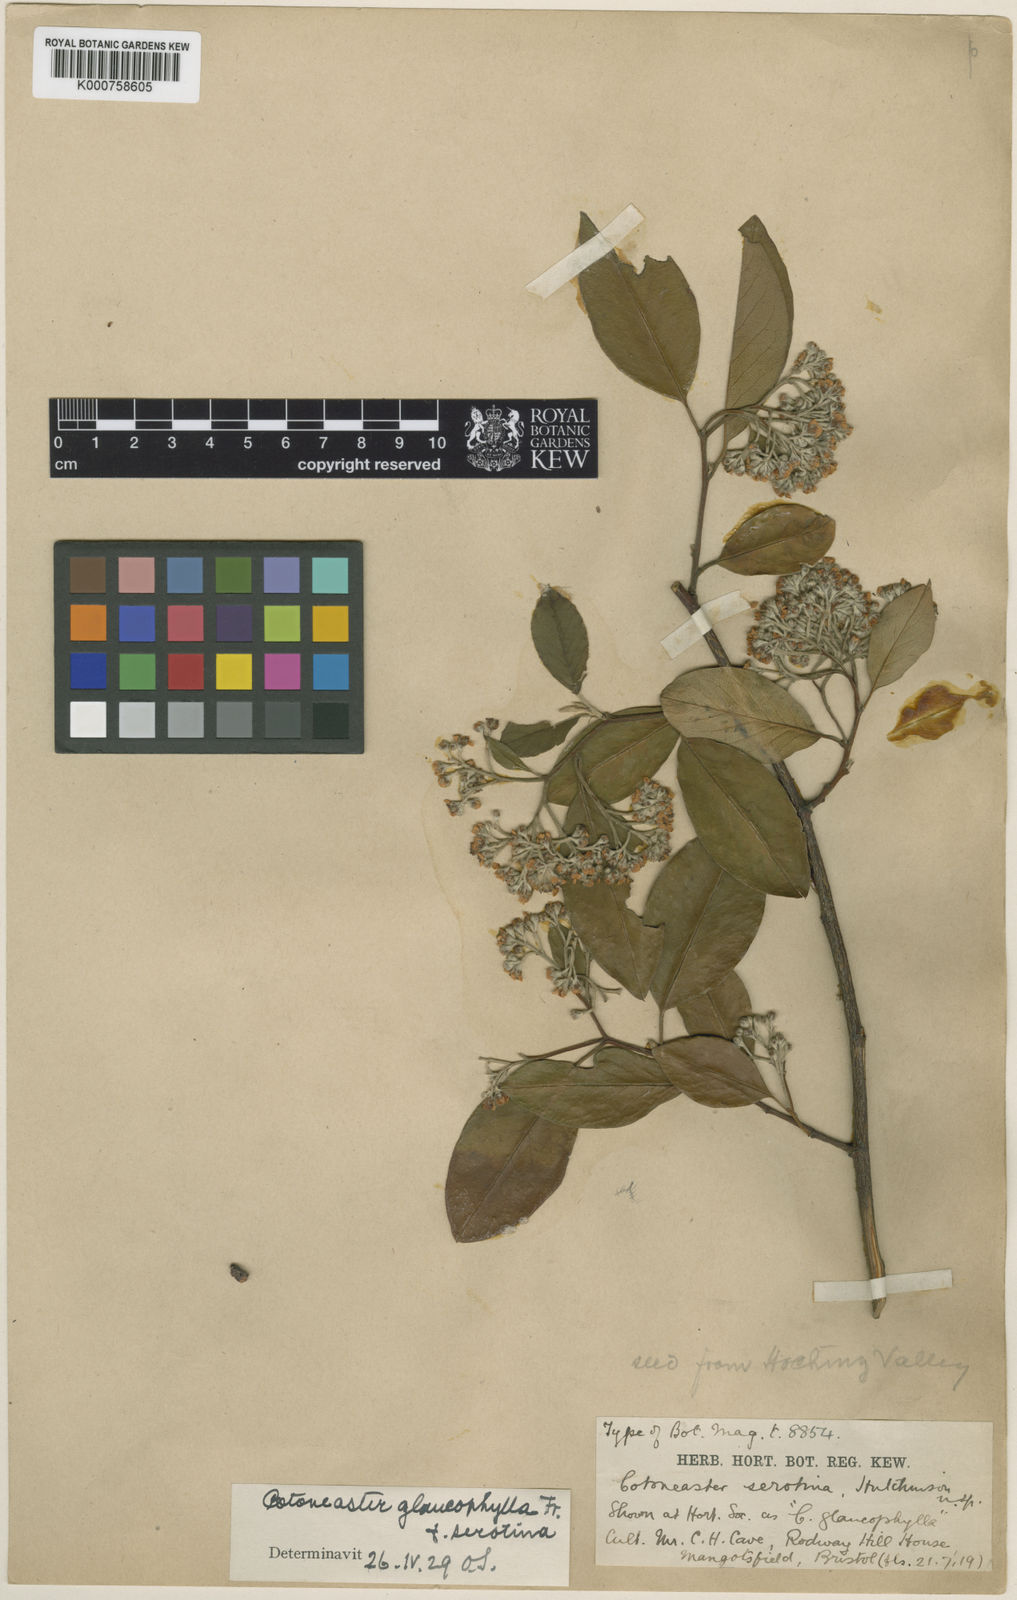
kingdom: Plantae
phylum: Tracheophyta
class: Magnoliopsida
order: Rosales
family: Rosaceae
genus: Cotoneaster
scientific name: Cotoneaster glaucophyllus
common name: Glaucous cotoneaster
